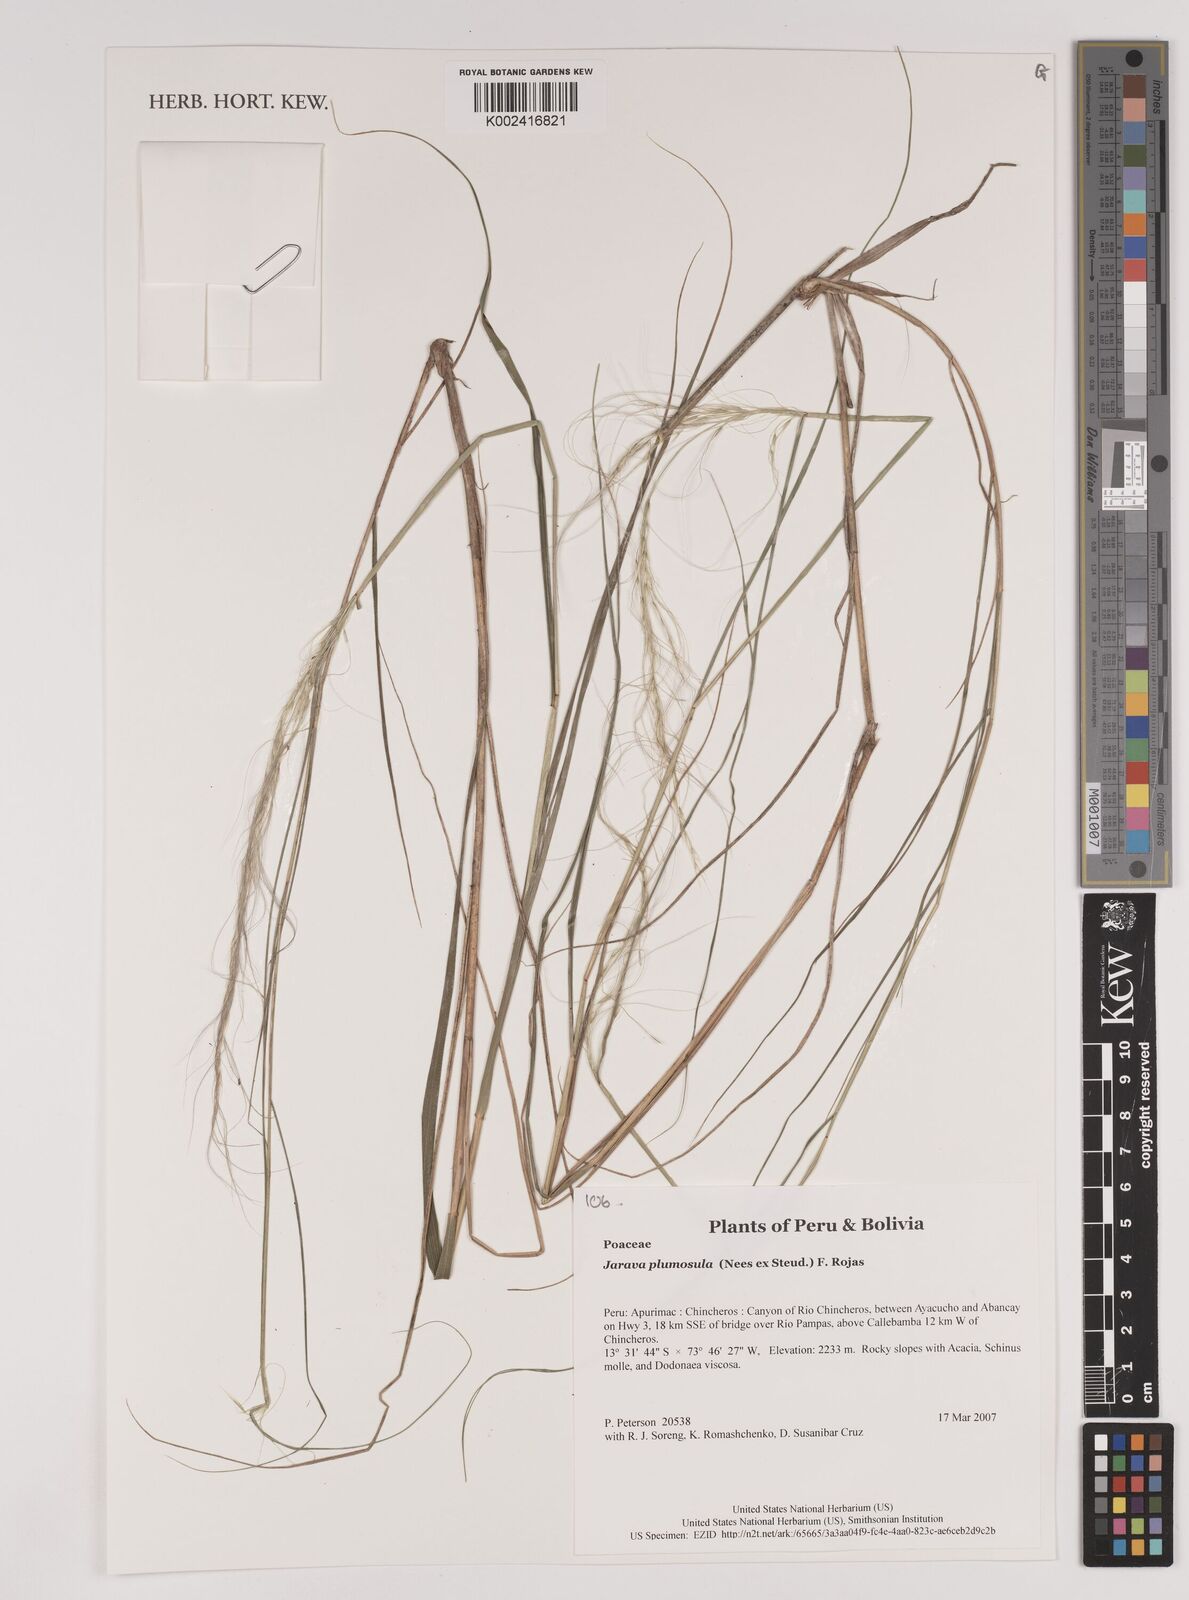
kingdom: Plantae
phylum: Tracheophyta
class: Liliopsida
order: Poales
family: Poaceae
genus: Stipa
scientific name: Stipa plumosa
